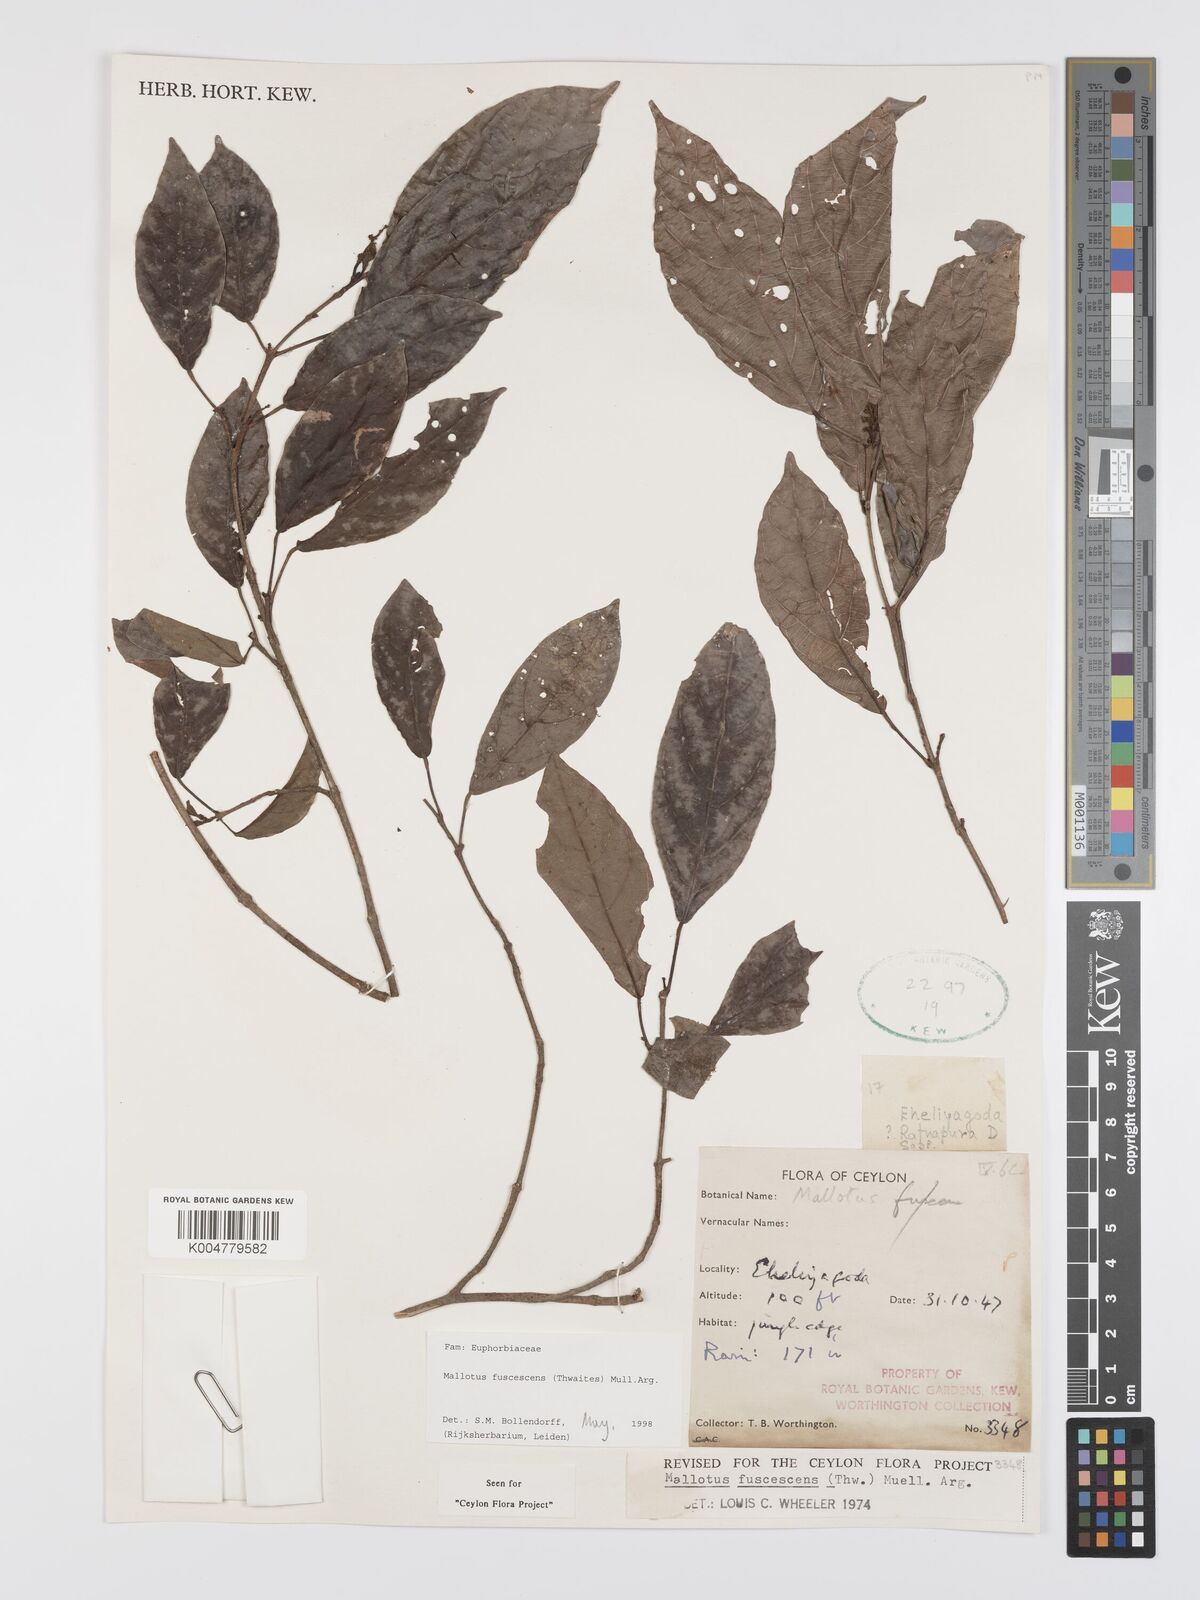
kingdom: Plantae
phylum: Tracheophyta
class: Magnoliopsida
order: Malpighiales
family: Euphorbiaceae
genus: Mallotus
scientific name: Mallotus fuscescens
